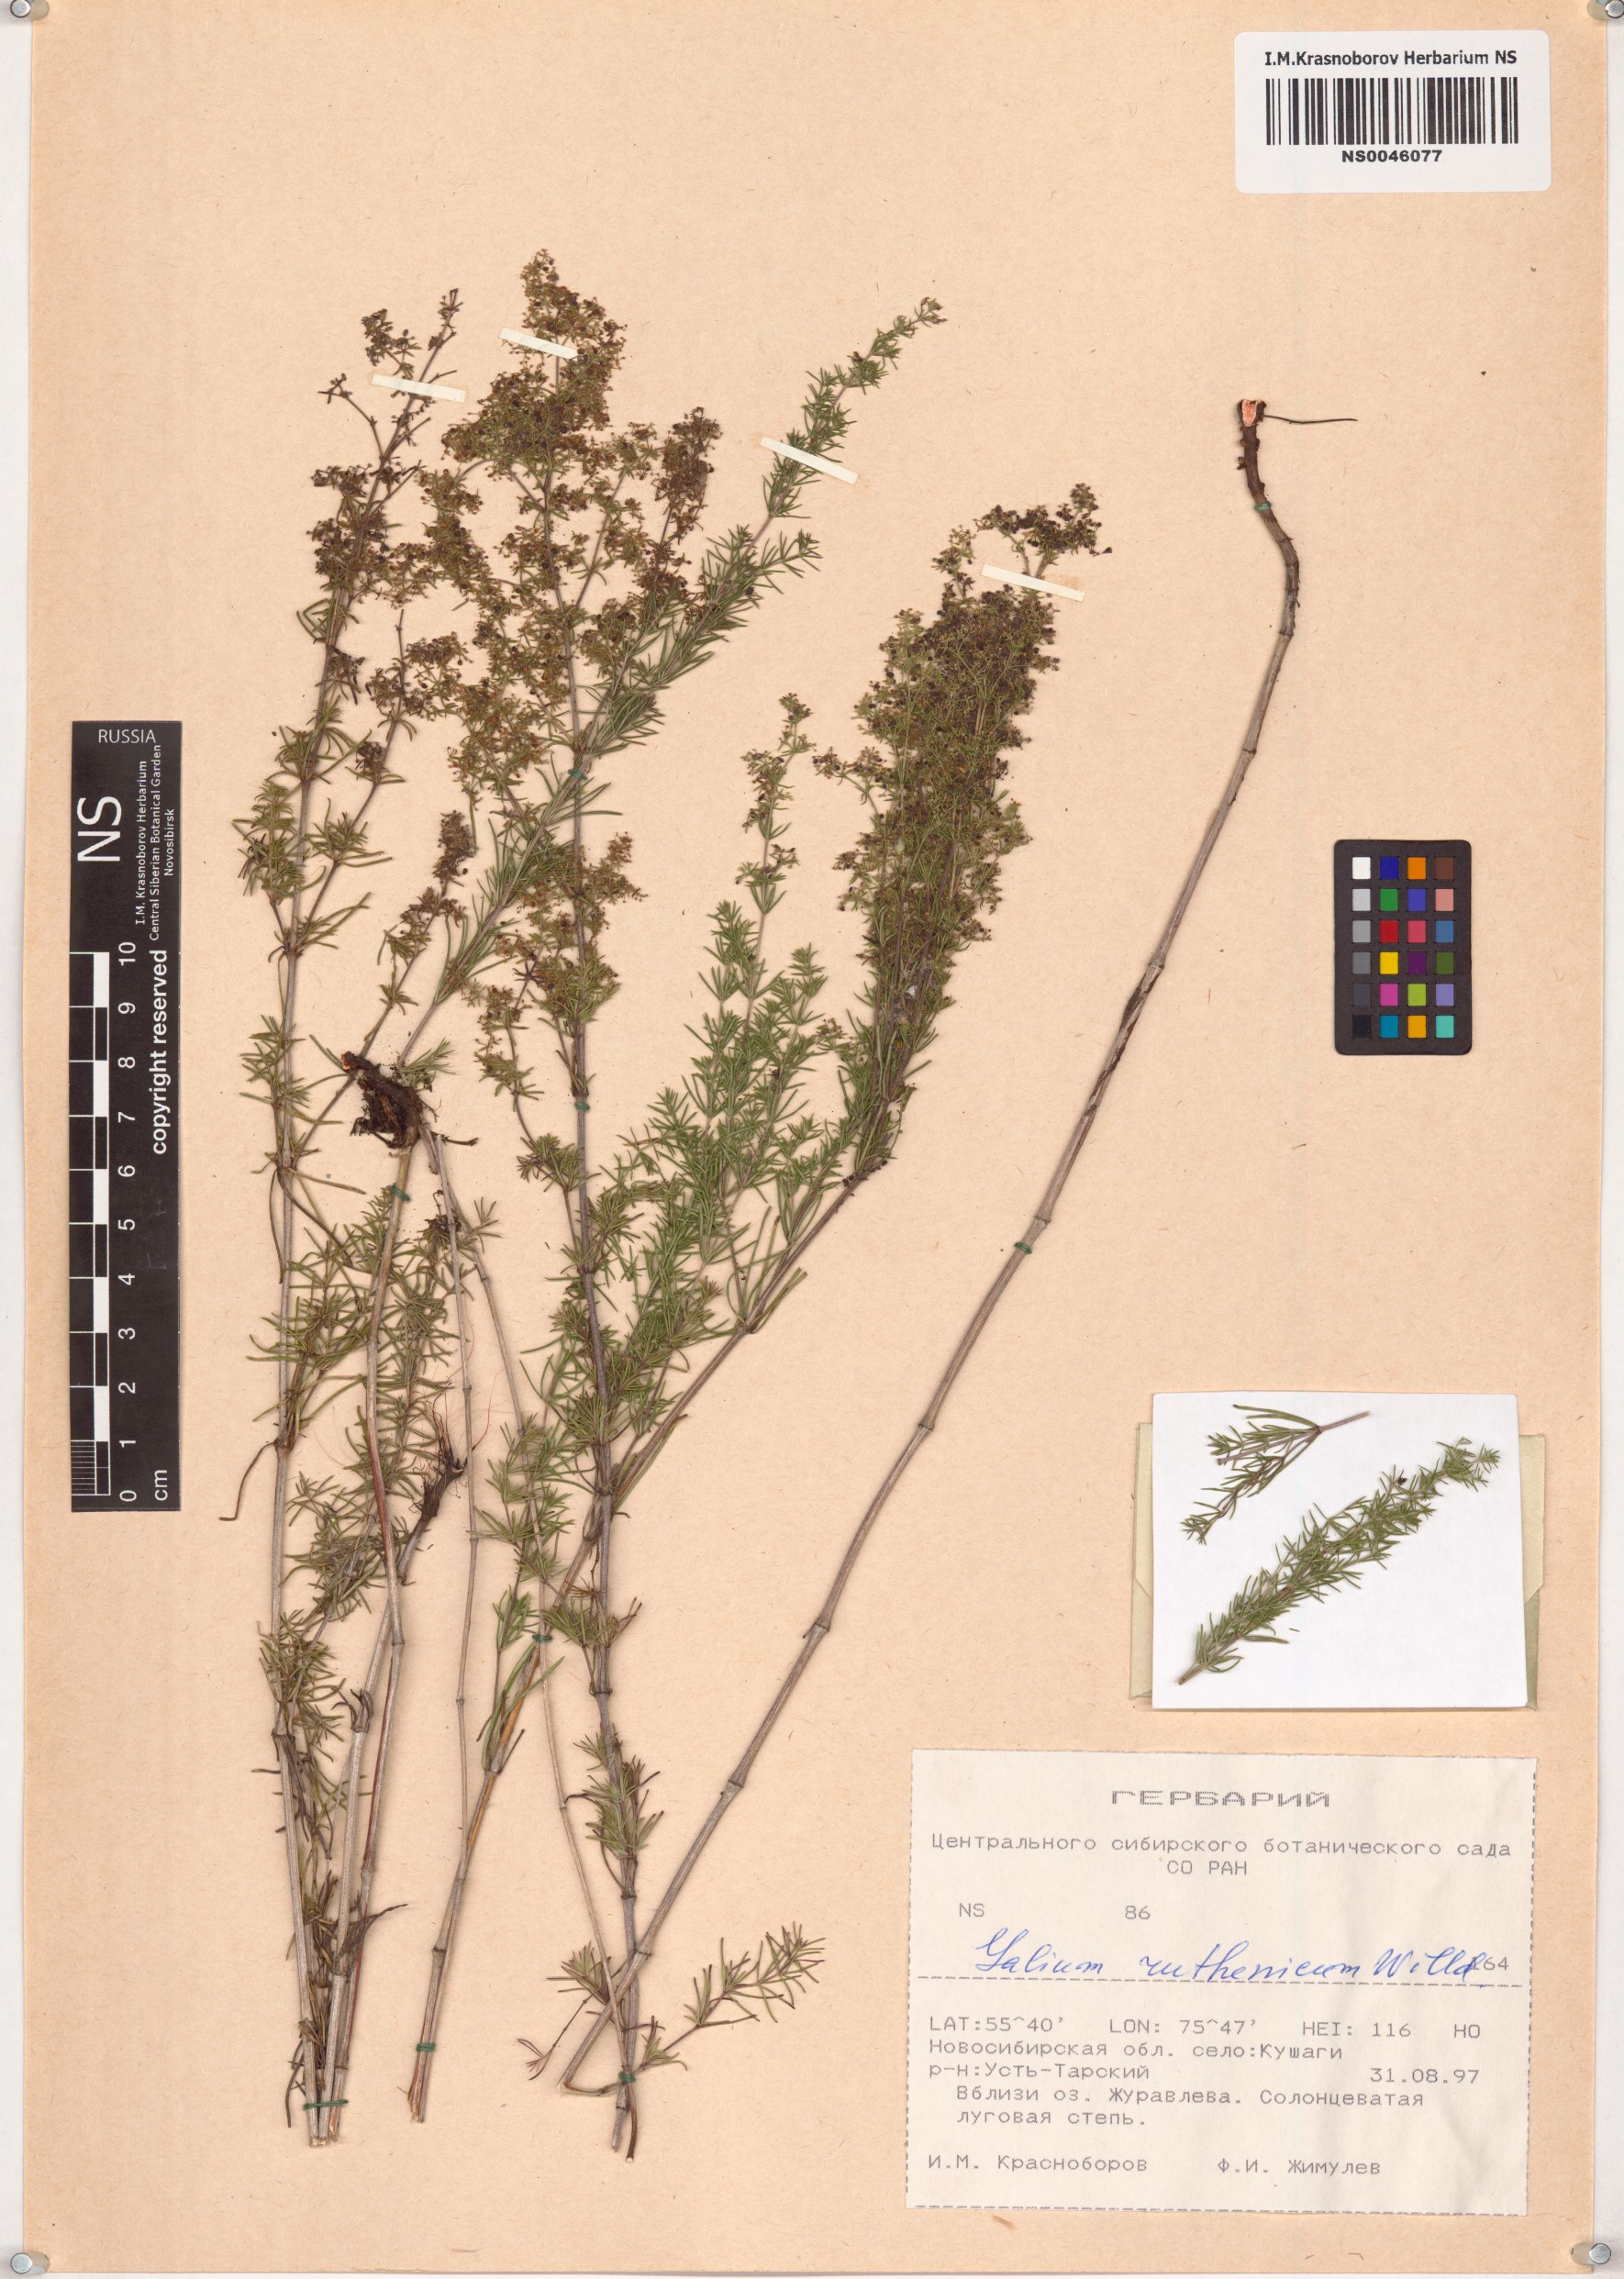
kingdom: Plantae
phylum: Tracheophyta
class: Magnoliopsida
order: Gentianales
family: Rubiaceae
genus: Galium
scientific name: Galium verum
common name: Lady's bedstraw
